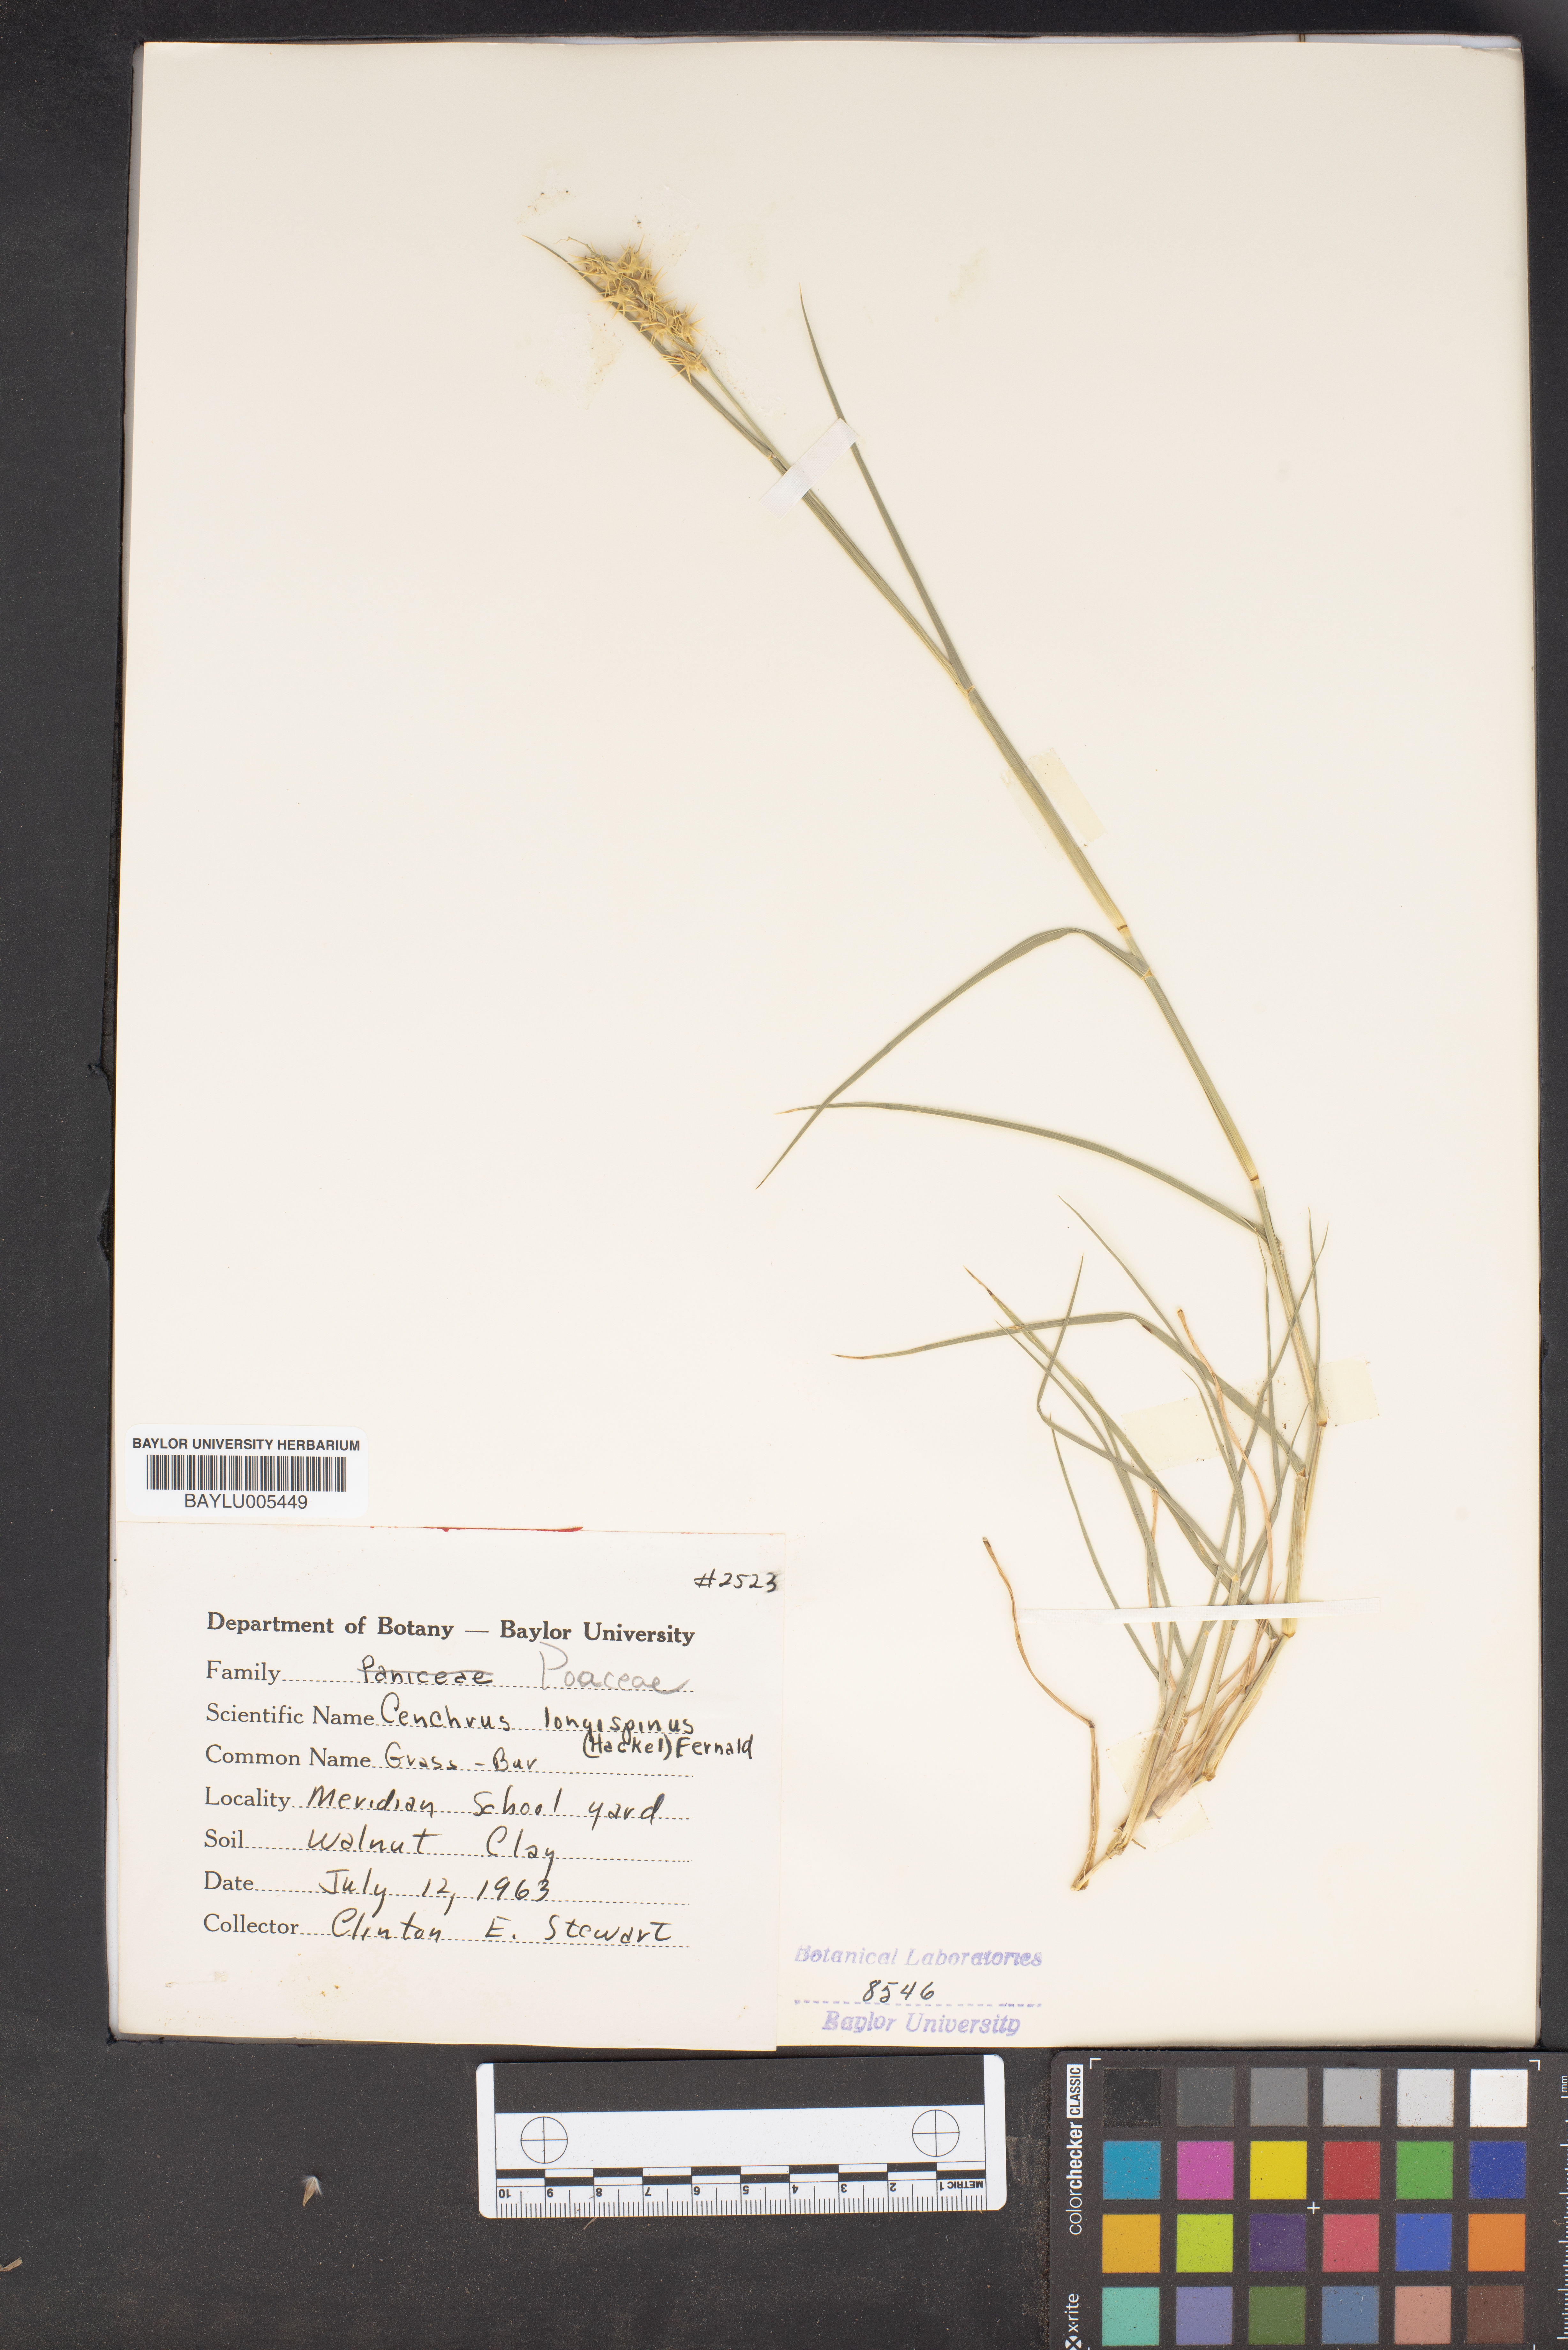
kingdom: Plantae
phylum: Tracheophyta
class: Liliopsida
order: Poales
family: Poaceae
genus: Cenchrus
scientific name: Cenchrus longispinus
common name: Mat sandbur
